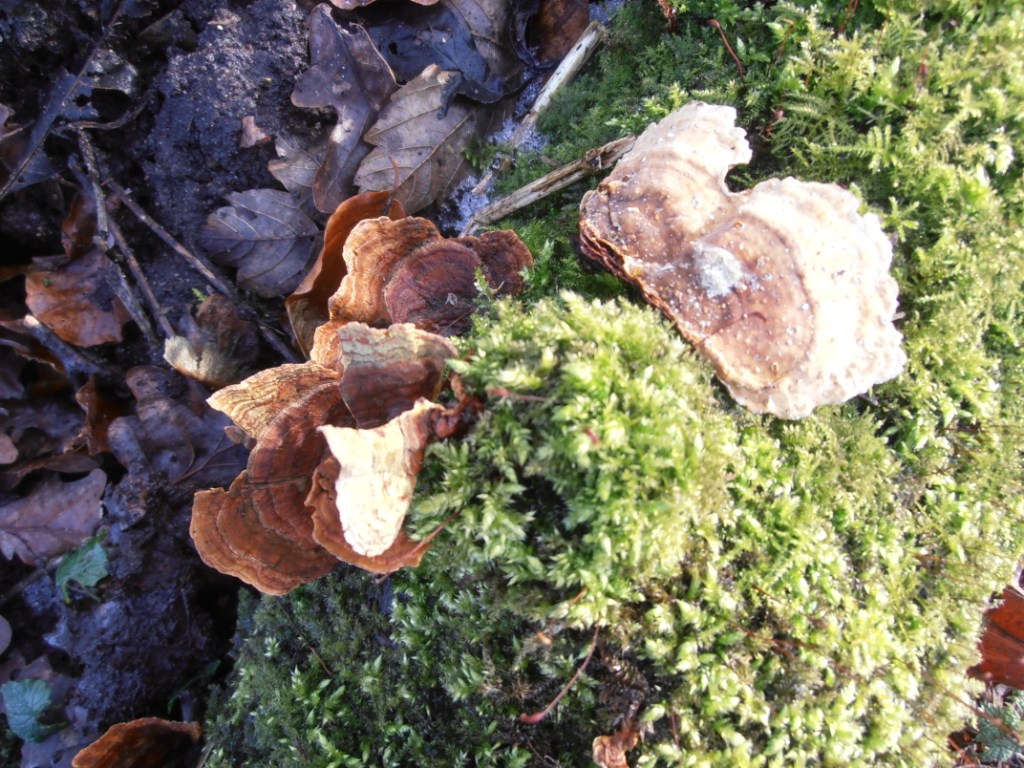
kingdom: Fungi
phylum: Basidiomycota
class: Agaricomycetes
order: Russulales
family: Stereaceae
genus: Stereum
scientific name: Stereum subtomentosum
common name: smuk lædersvamp
